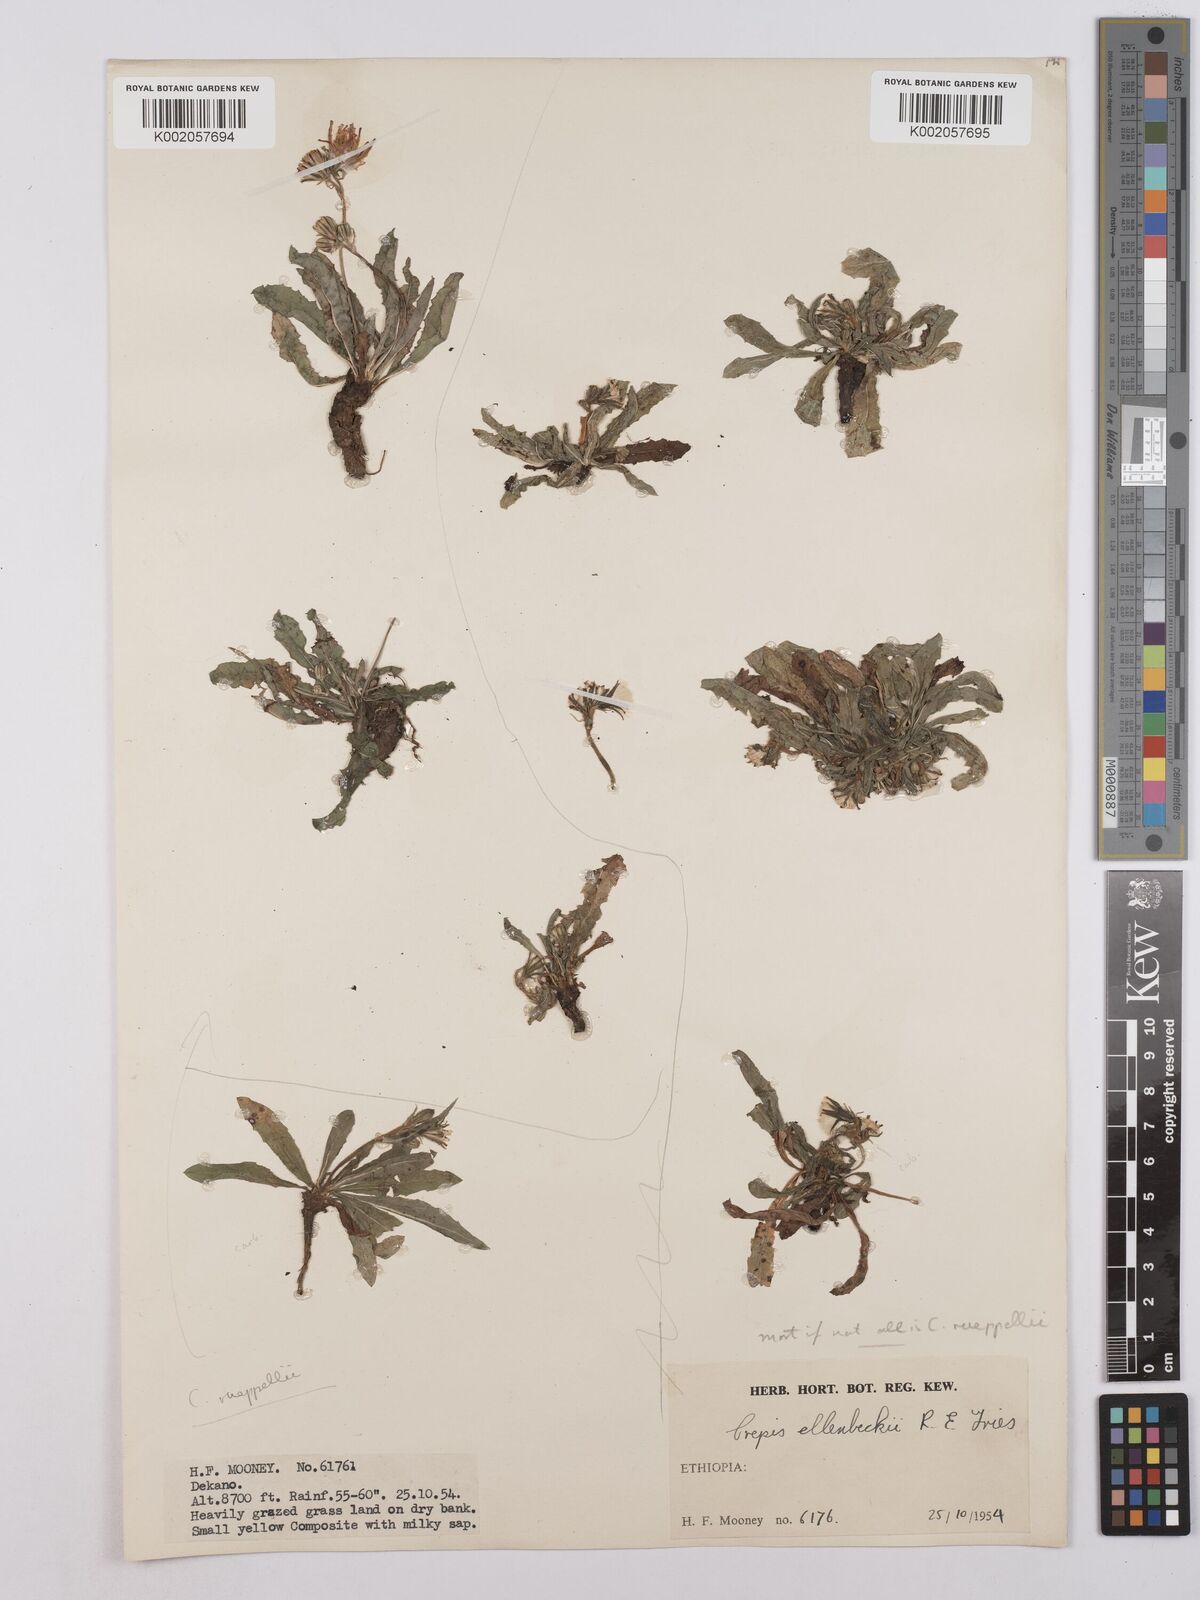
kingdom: Plantae
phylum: Tracheophyta
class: Magnoliopsida
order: Asterales
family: Asteraceae
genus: Crepis
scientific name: Crepis rueppellii
